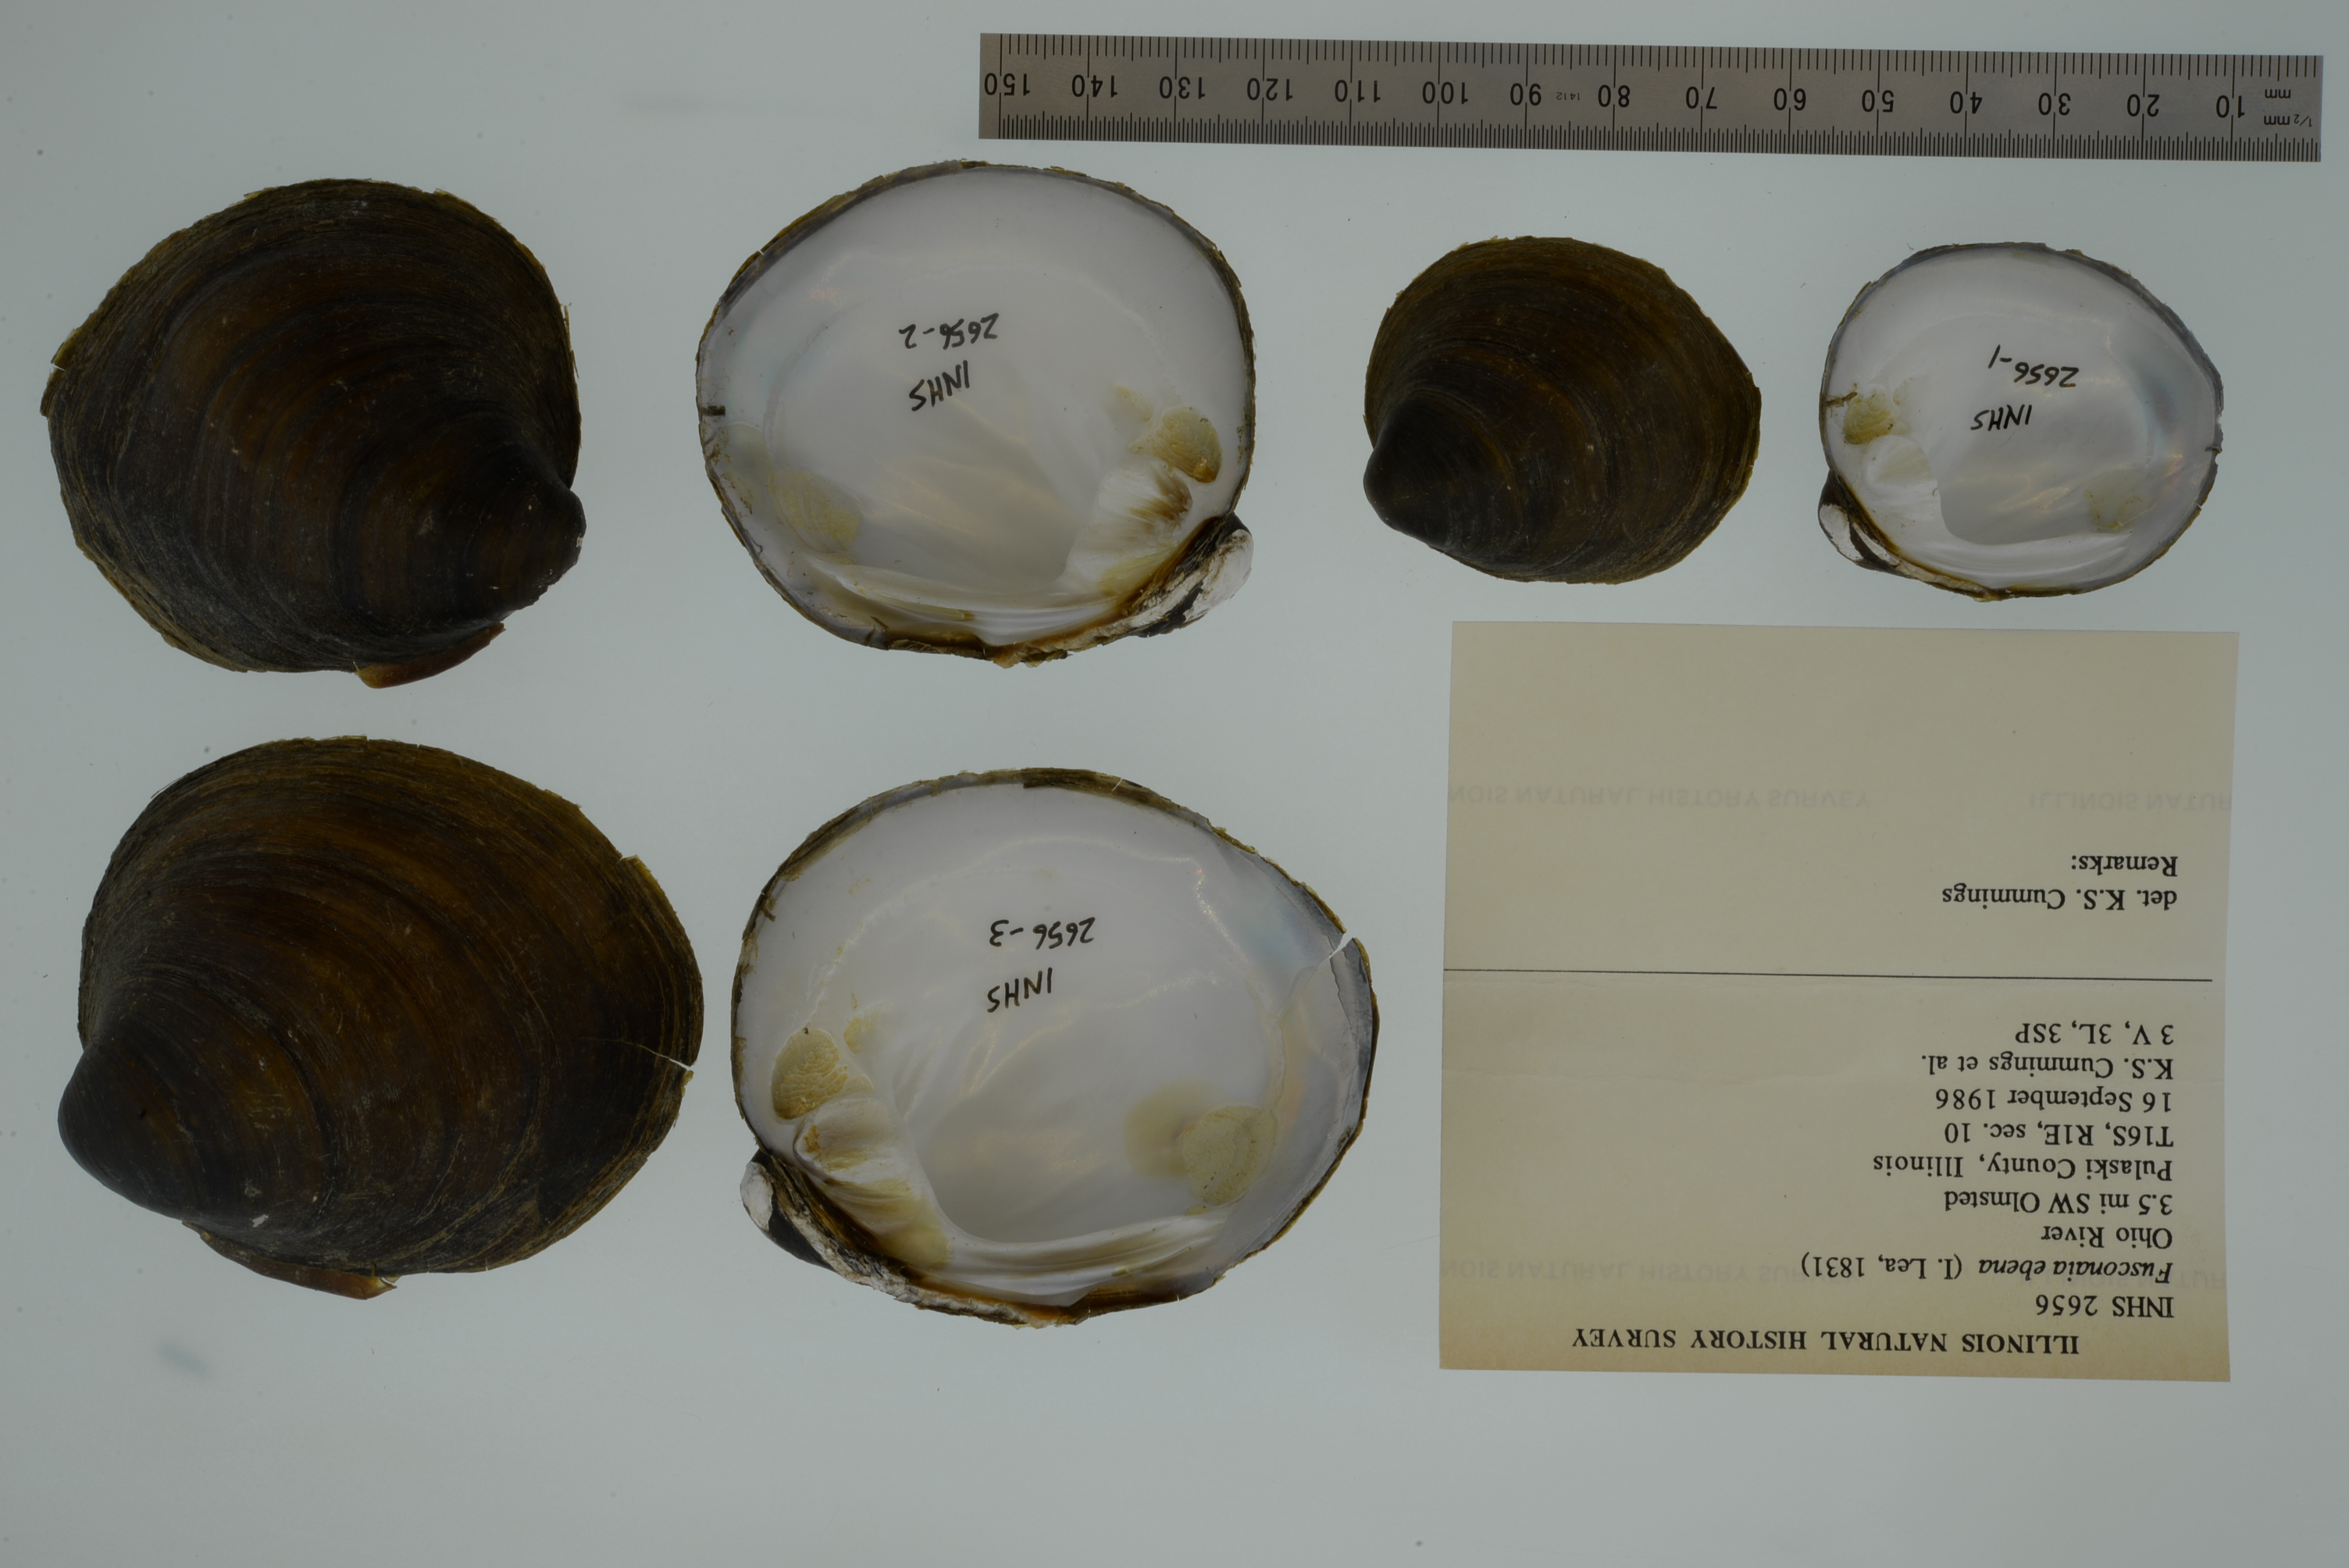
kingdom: Animalia
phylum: Mollusca
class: Bivalvia
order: Unionida
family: Unionidae
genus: Reginaia
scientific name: Reginaia ebenus
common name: Ebonyshell
